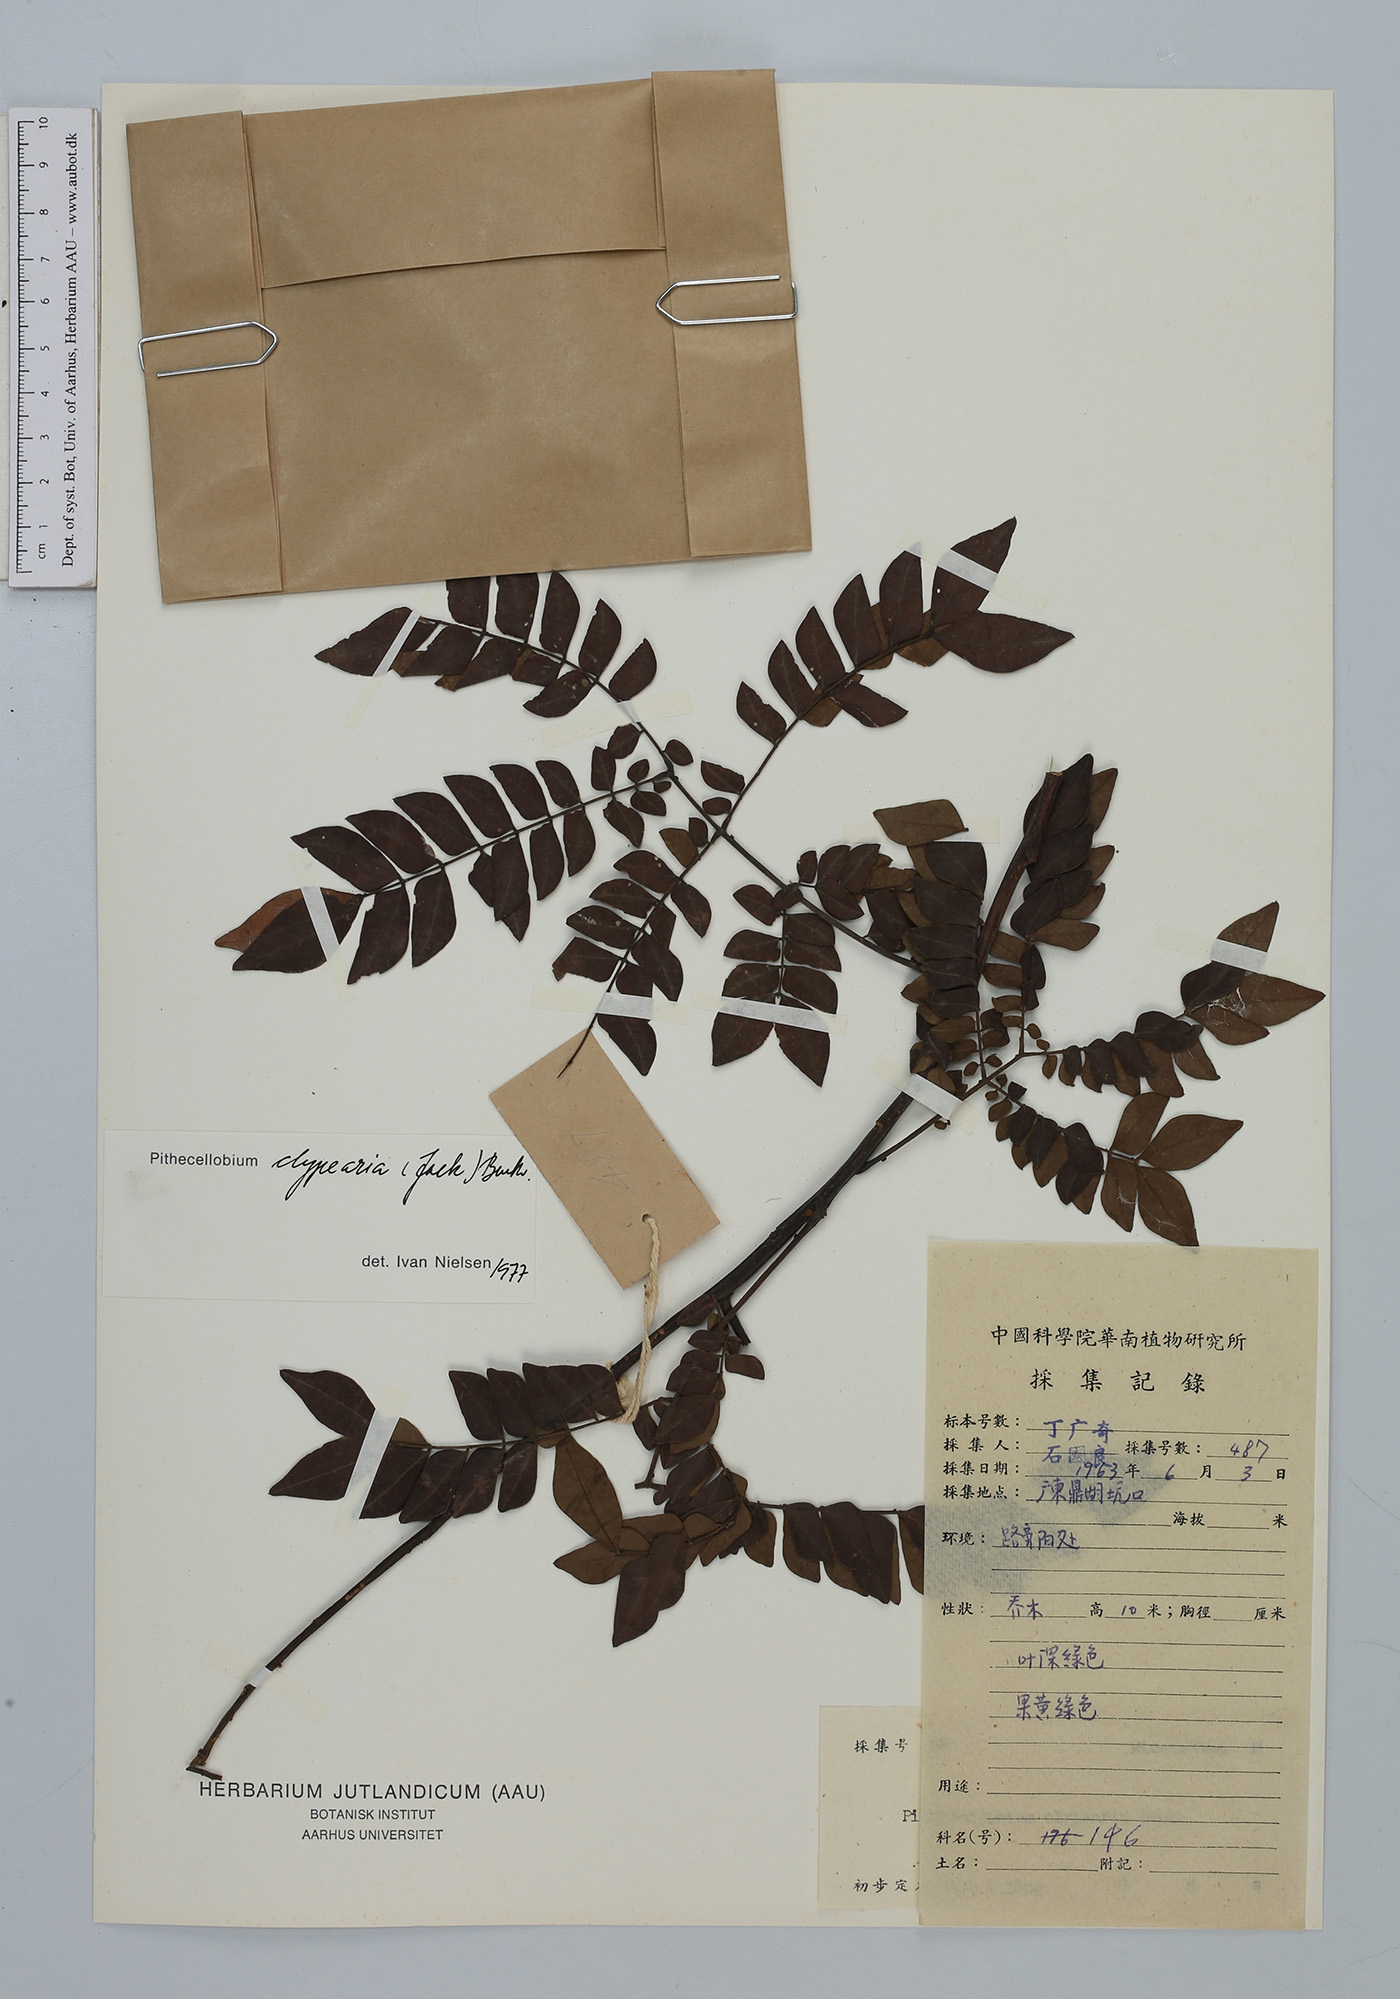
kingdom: Plantae
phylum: Tracheophyta
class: Magnoliopsida
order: Fabales
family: Fabaceae
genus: Archidendron
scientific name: Archidendron clypearia
